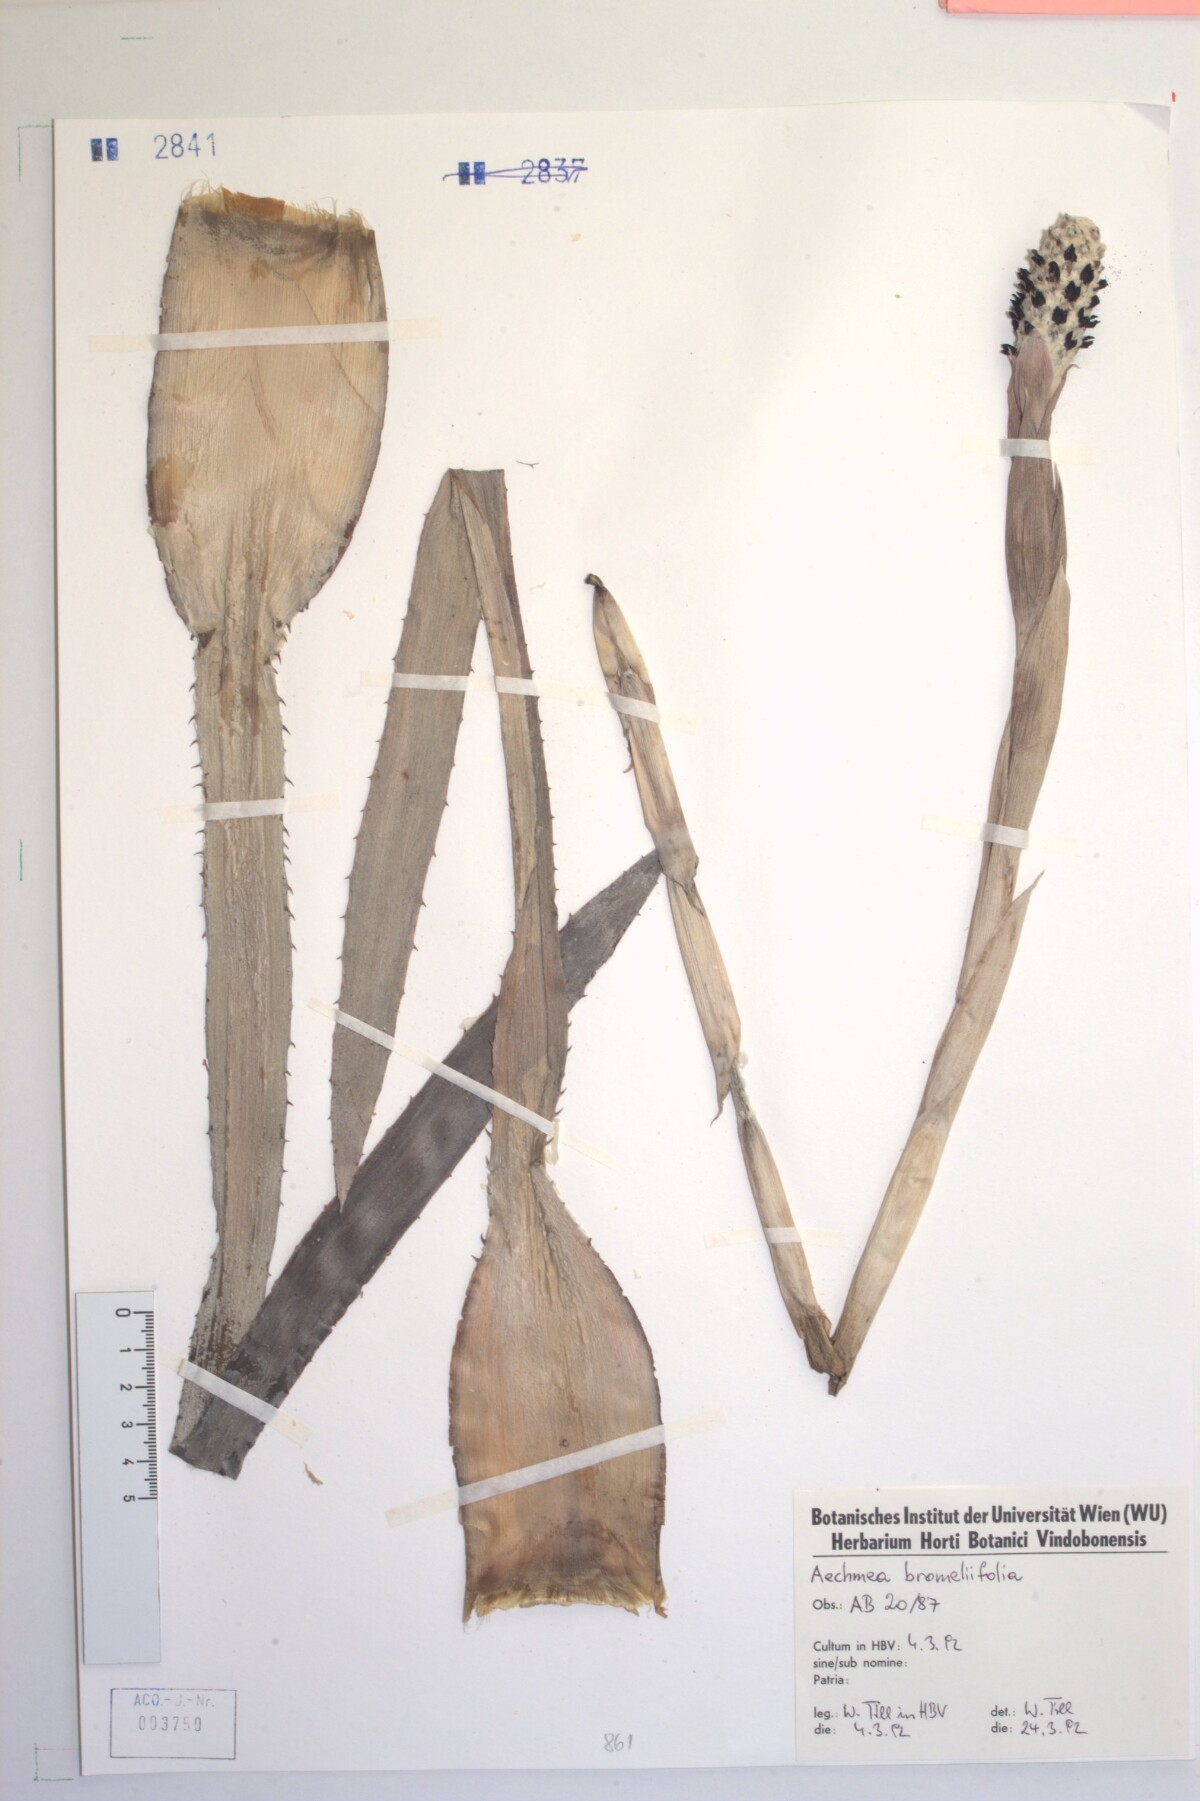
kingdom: Plantae
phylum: Tracheophyta
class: Liliopsida
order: Poales
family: Bromeliaceae
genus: Aechmea
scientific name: Aechmea bromeliifolia
